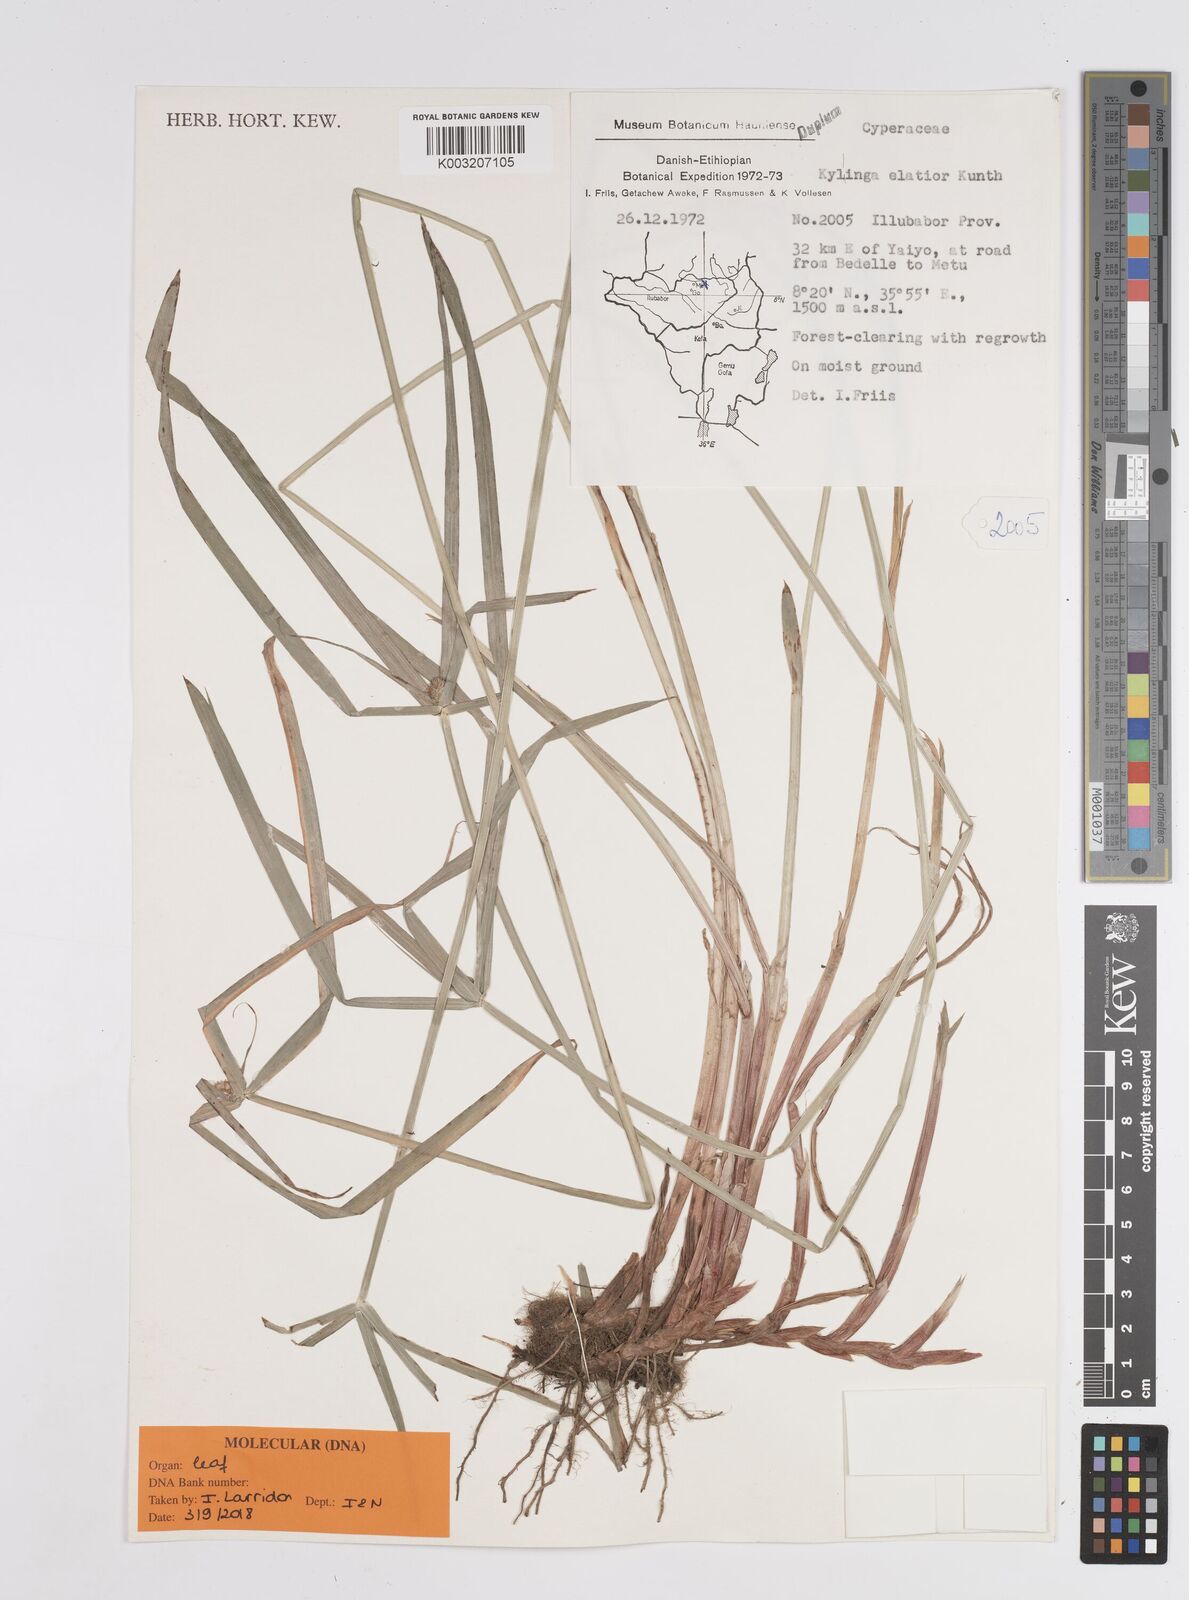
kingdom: Plantae
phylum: Tracheophyta
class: Liliopsida
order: Poales
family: Cyperaceae
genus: Cyperus
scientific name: Cyperus
